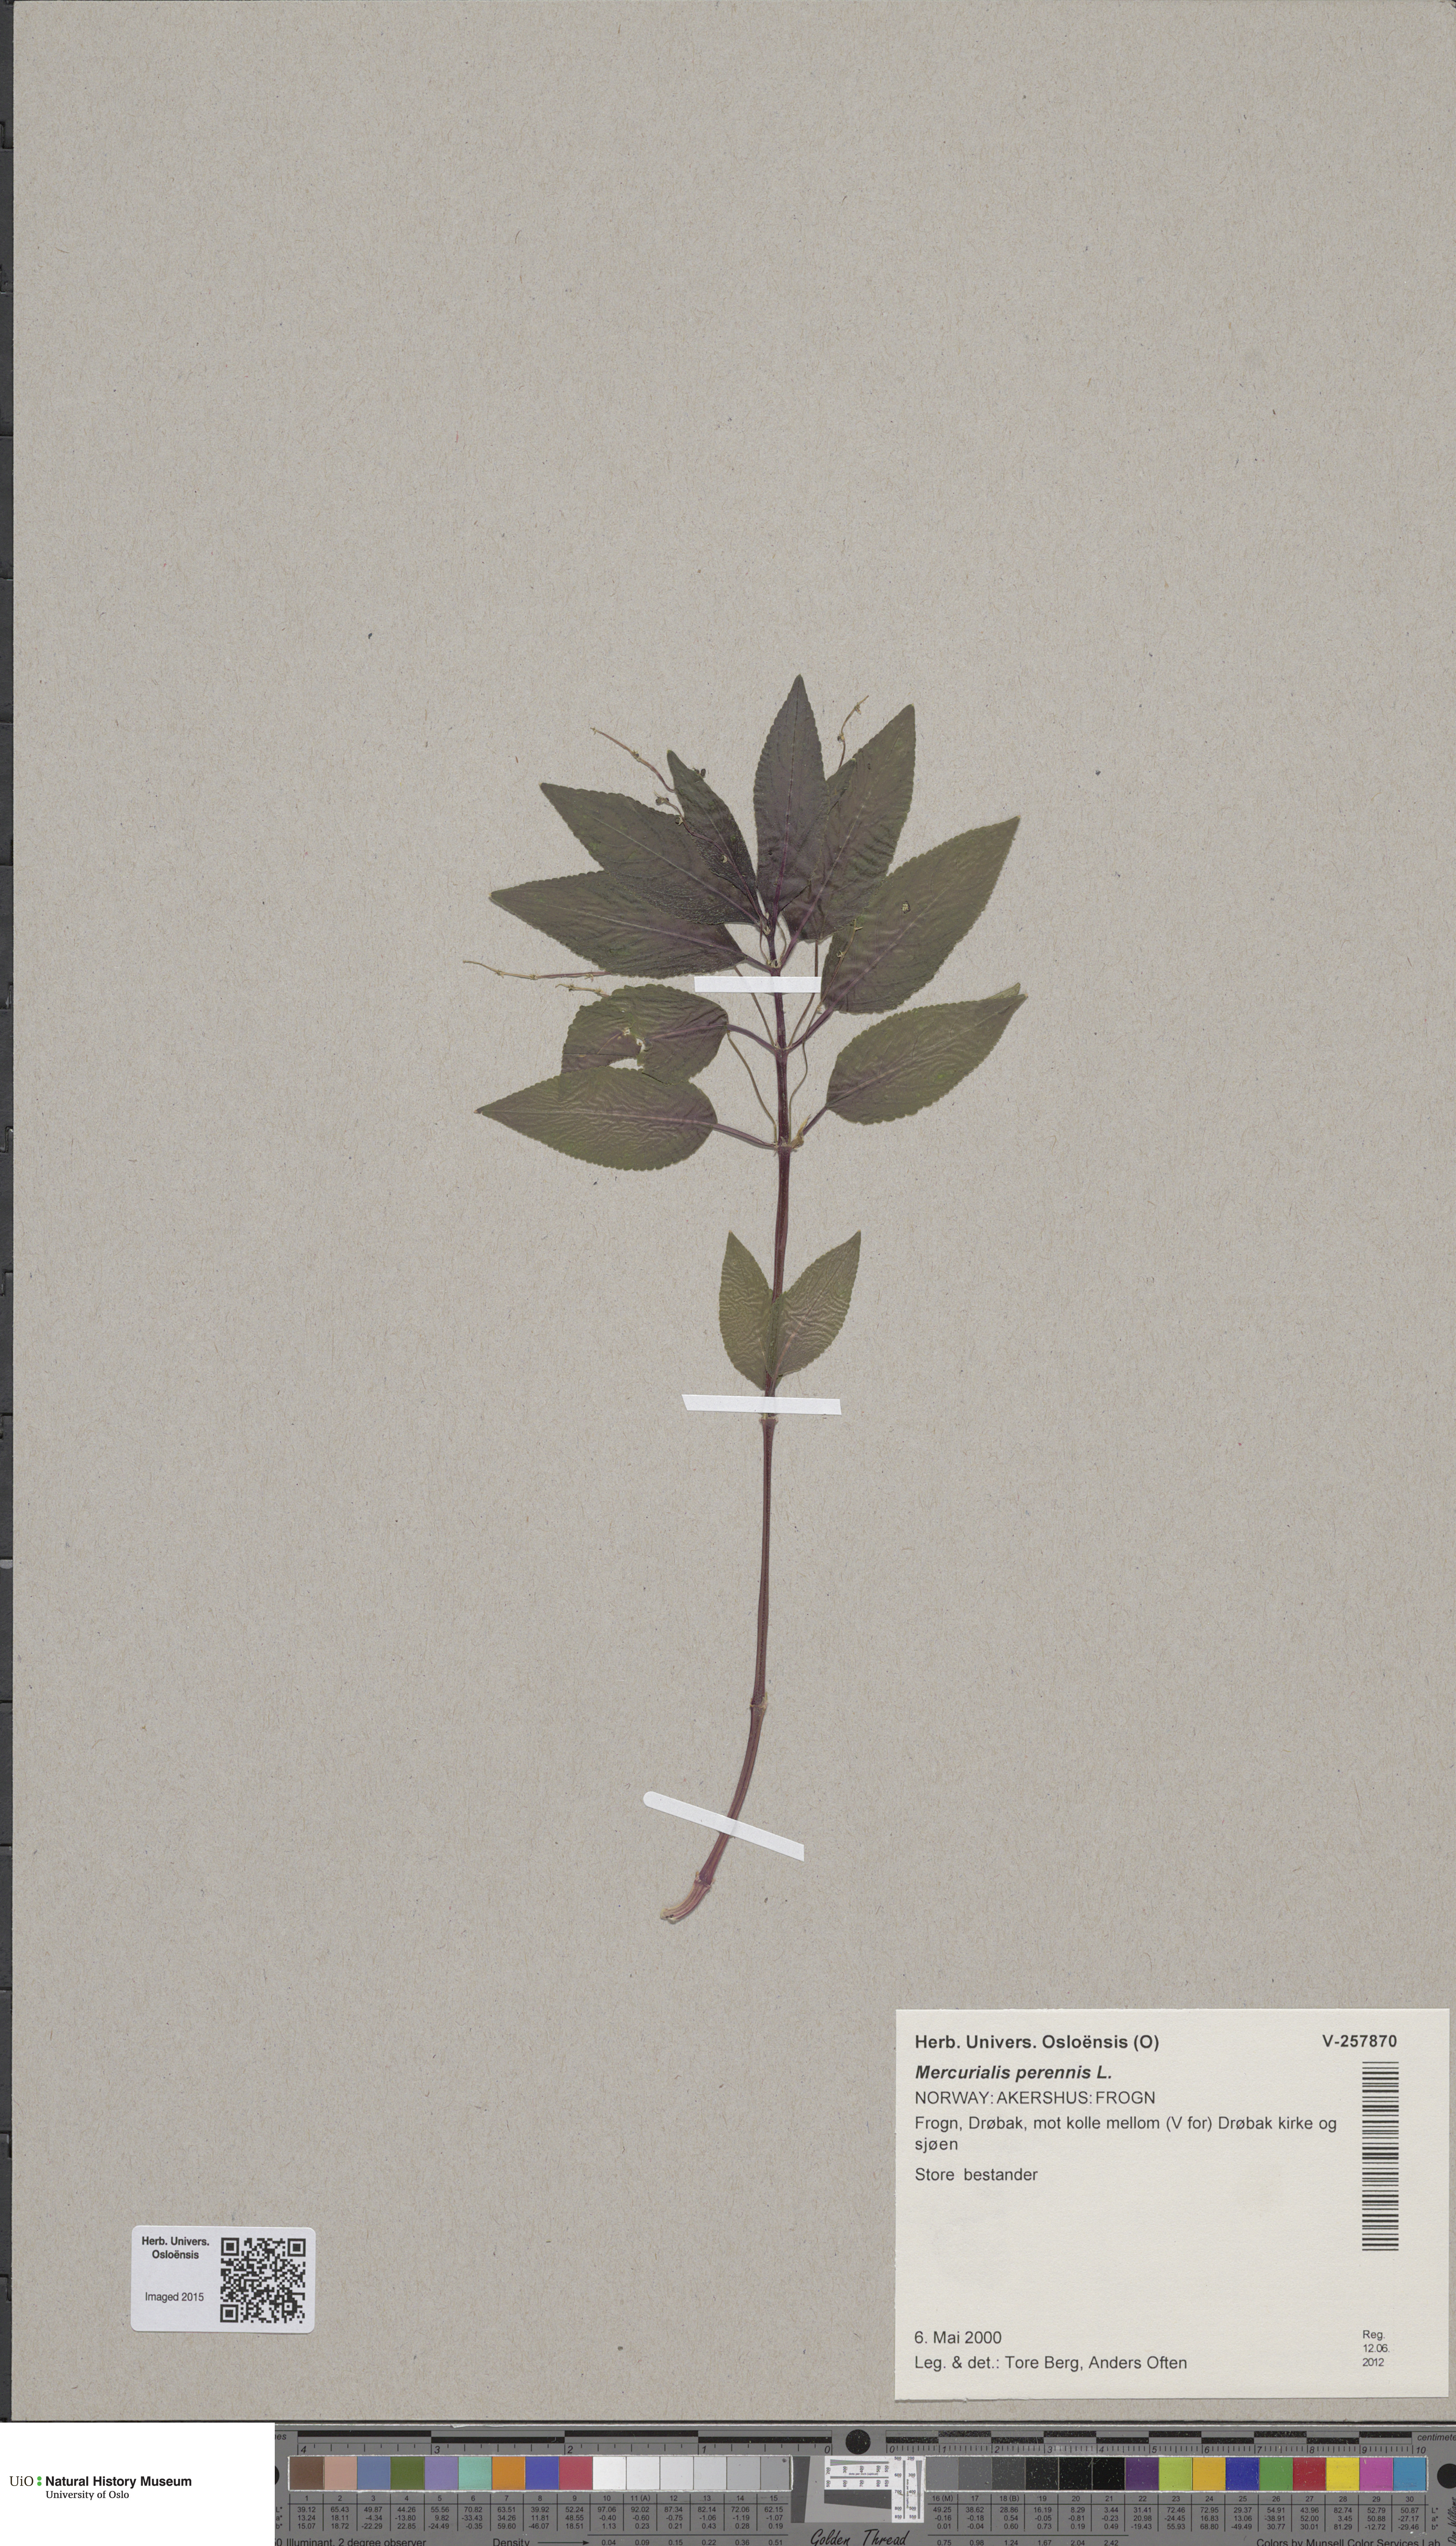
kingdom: Plantae
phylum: Tracheophyta
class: Magnoliopsida
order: Malpighiales
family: Euphorbiaceae
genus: Mercurialis
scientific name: Mercurialis perennis
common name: Dog mercury
